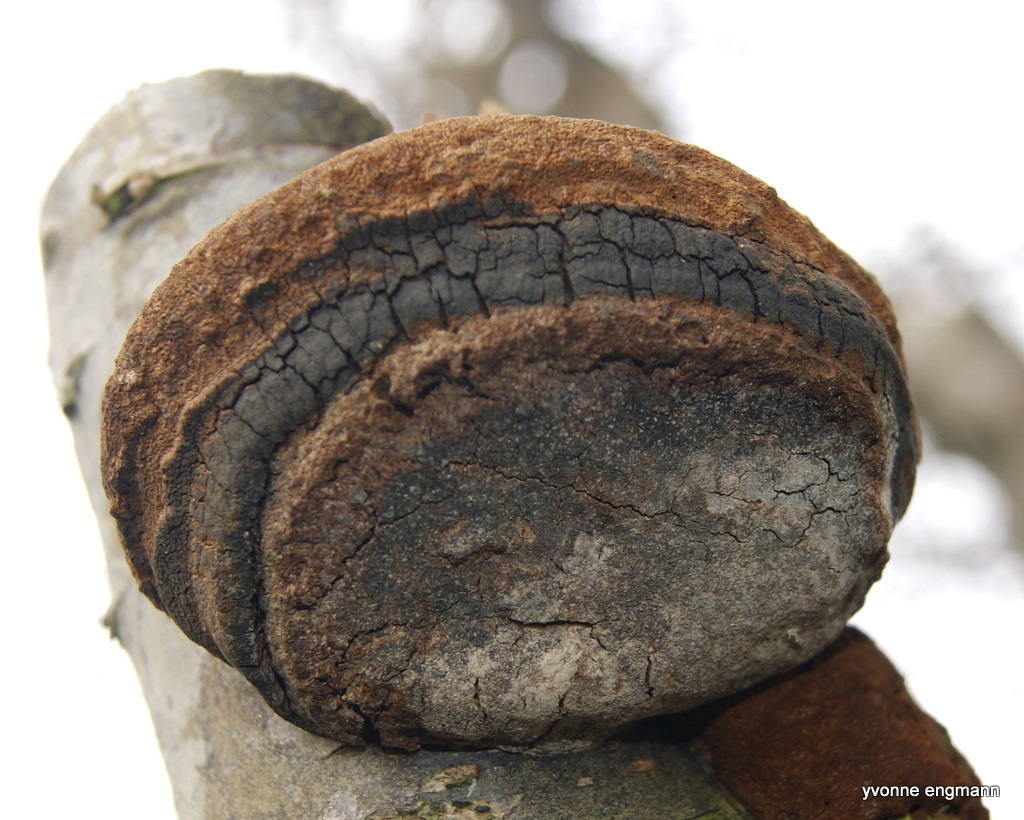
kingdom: Fungi
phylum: Basidiomycota
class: Agaricomycetes
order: Hymenochaetales
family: Hymenochaetaceae
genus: Phellinus
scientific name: Phellinus pomaceus
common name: blomme-ildporesvamp
